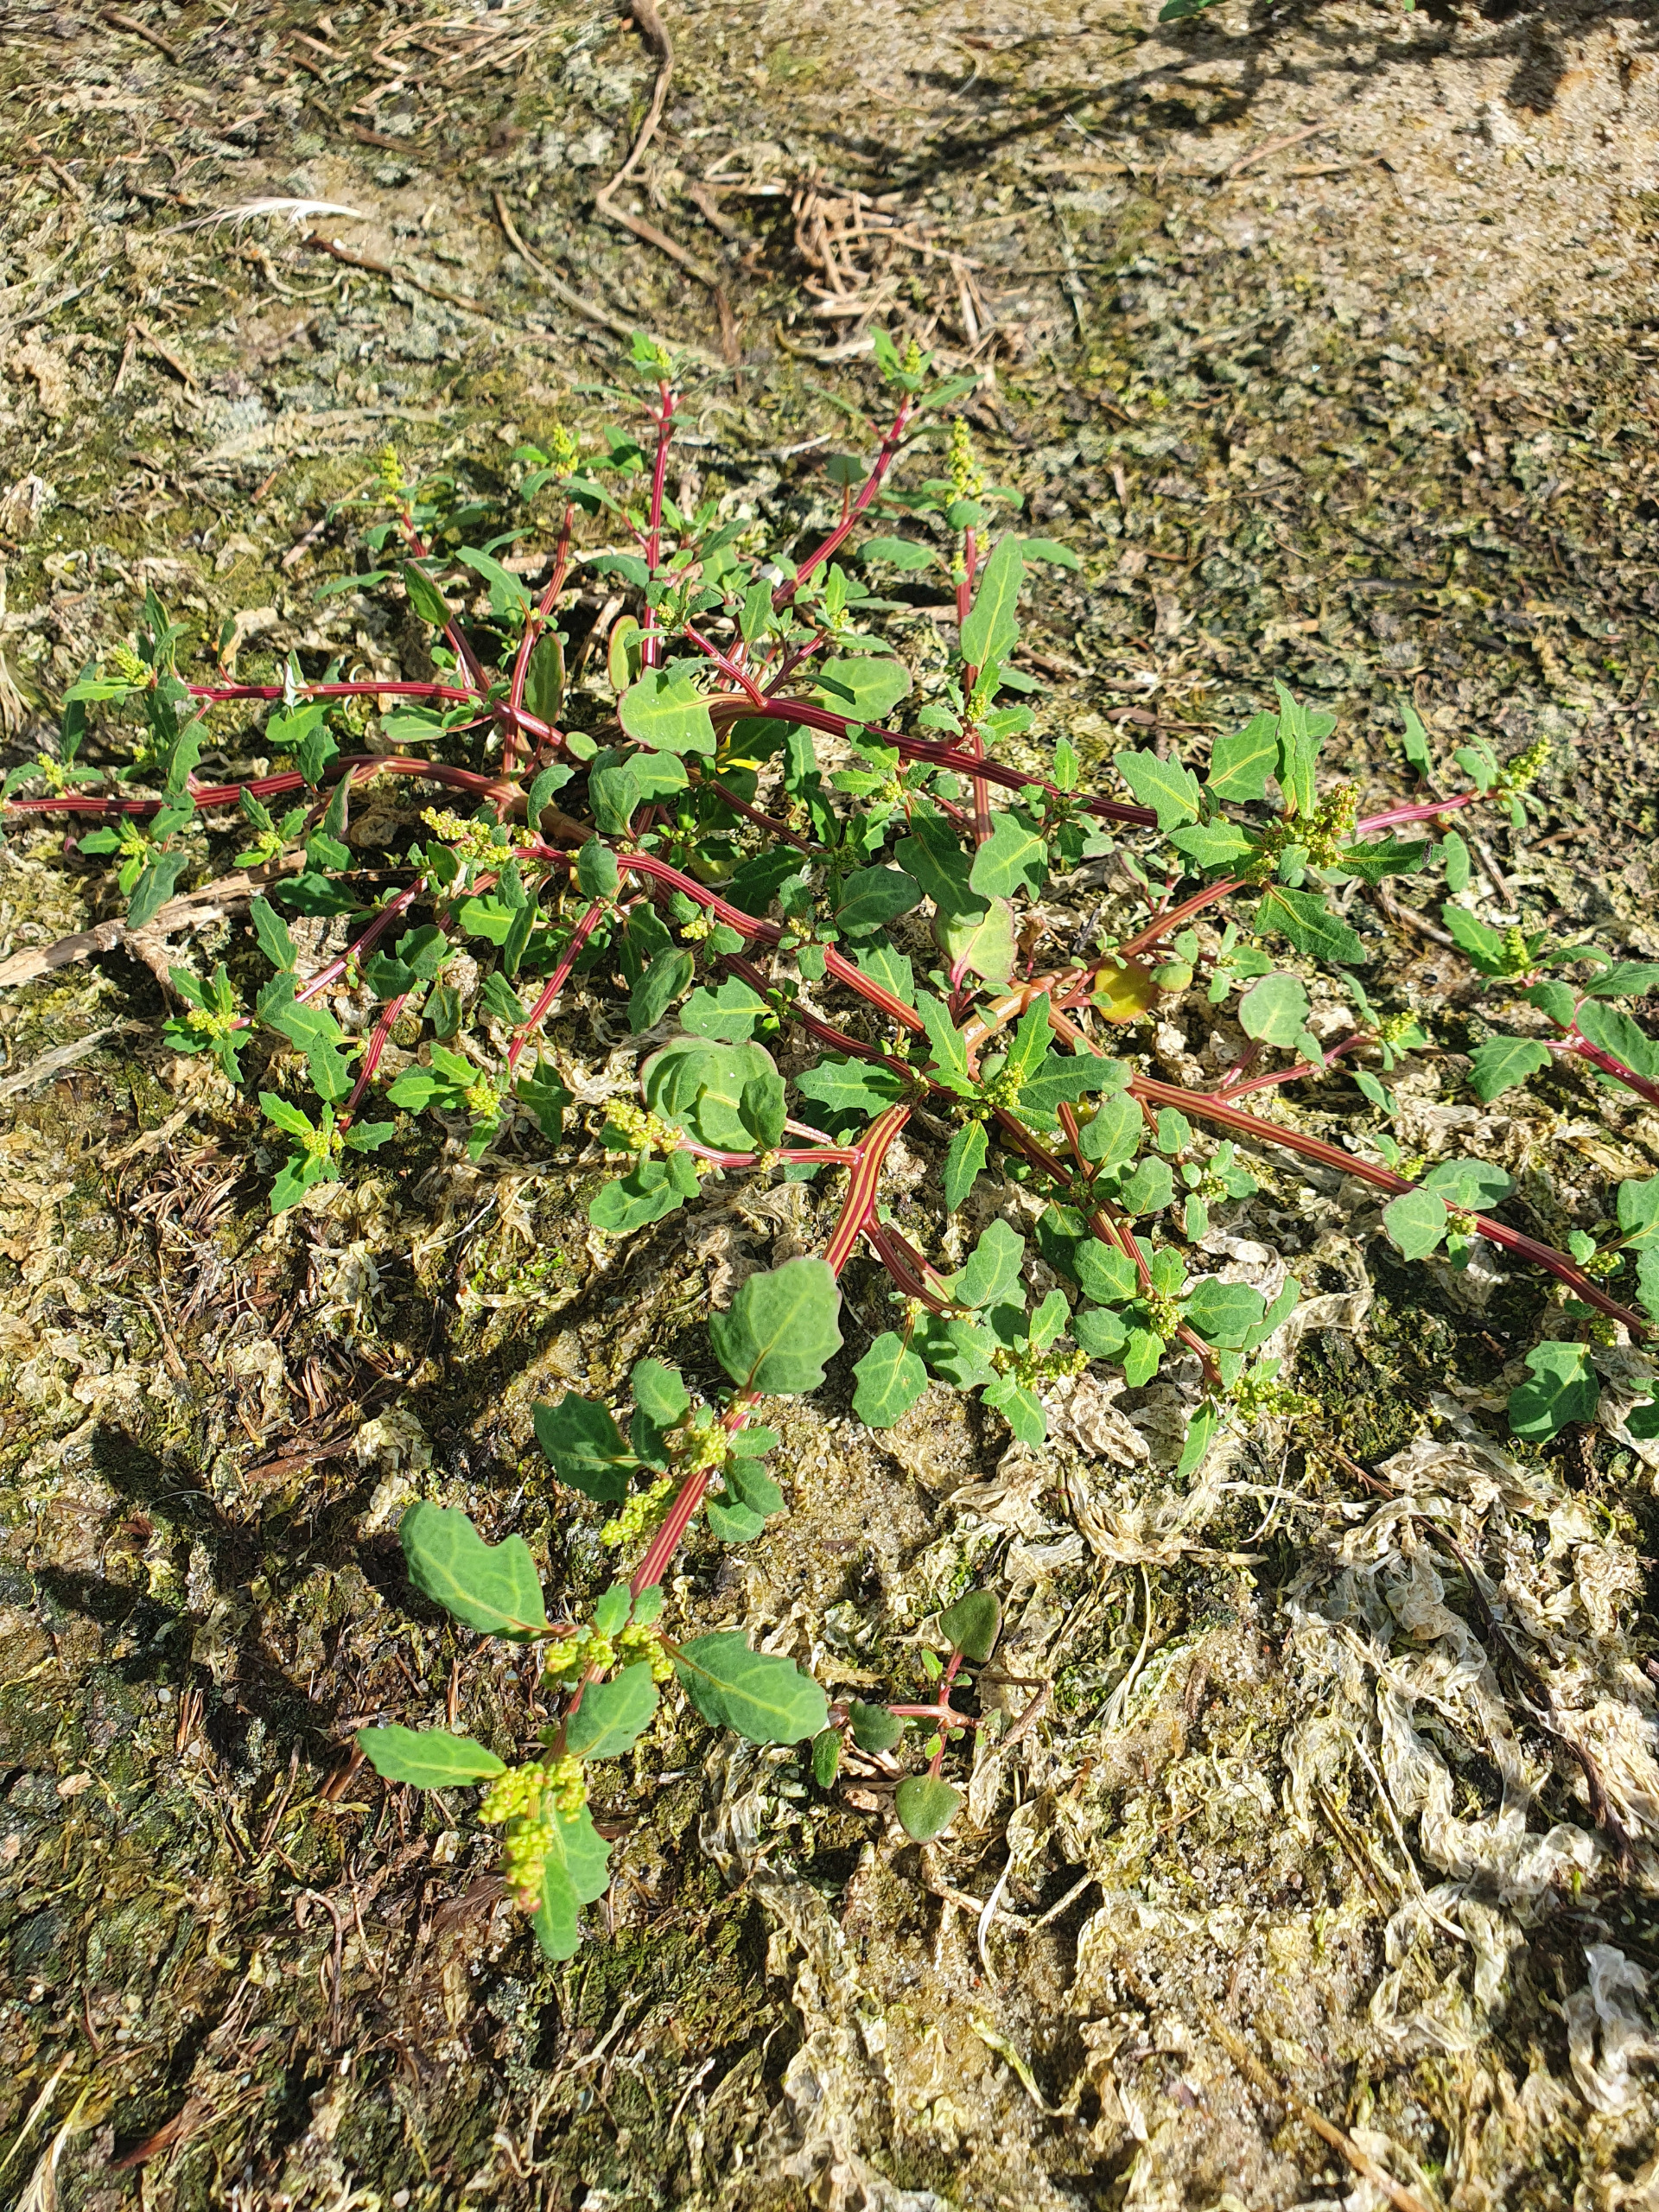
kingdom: Plantae
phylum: Tracheophyta
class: Magnoliopsida
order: Caryophyllales
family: Amaranthaceae
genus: Oxybasis
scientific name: Oxybasis glauca
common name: Blågrøn gåsefod
